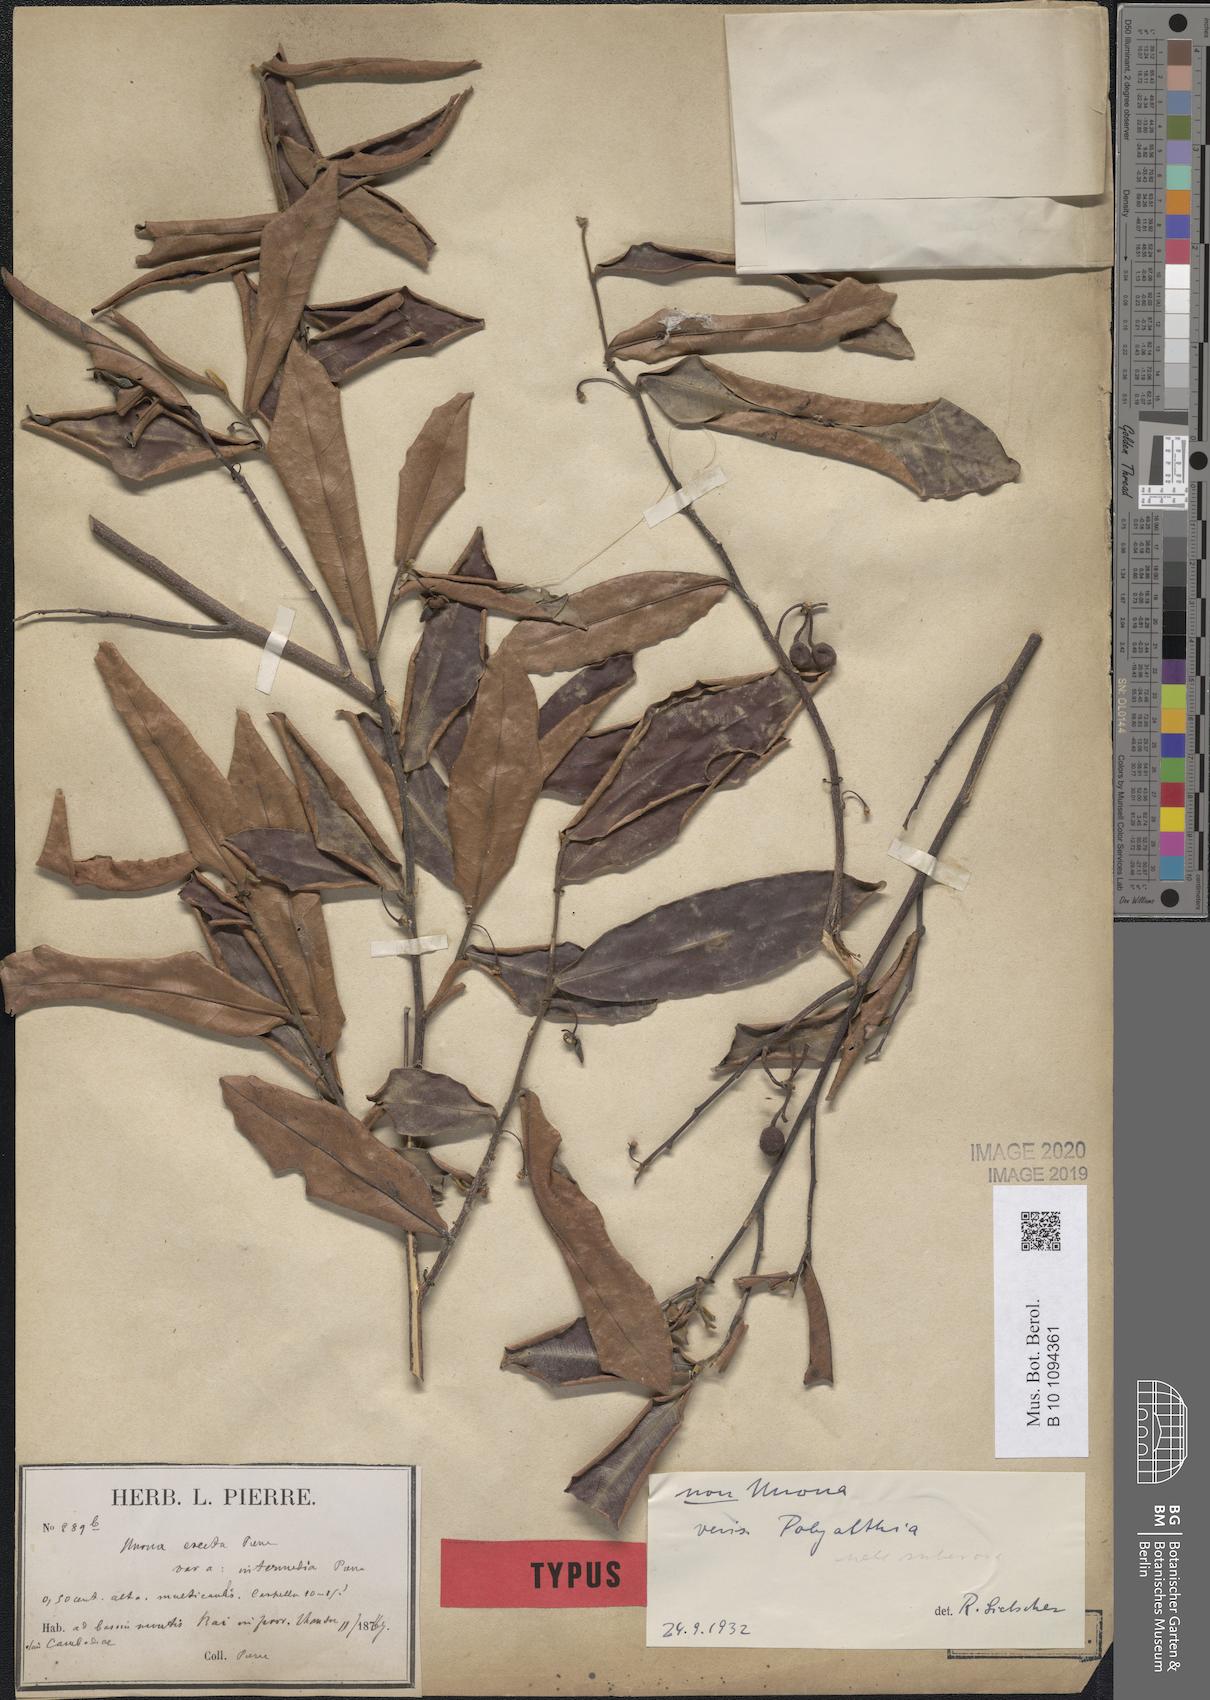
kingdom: Plantae
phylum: Tracheophyta
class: Magnoliopsida
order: Magnoliales
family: Annonaceae
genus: Polyalthia
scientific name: Polyalthia intermedia
